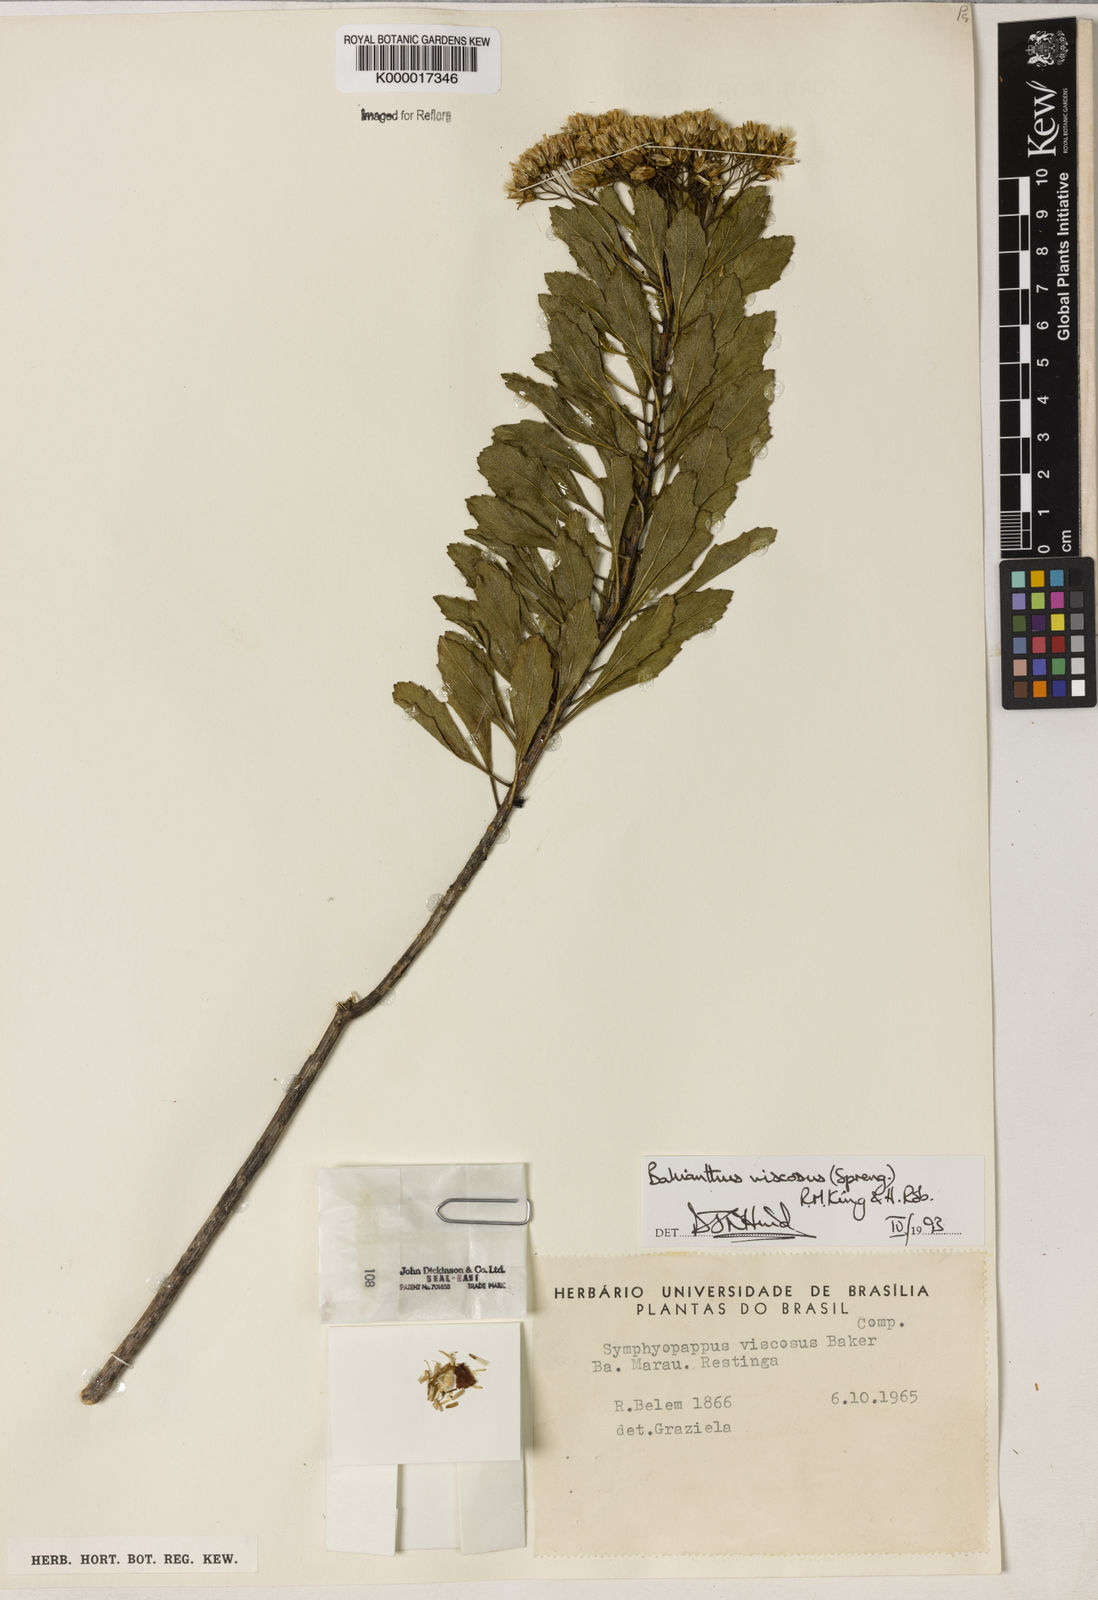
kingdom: Plantae
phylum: Tracheophyta
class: Magnoliopsida
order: Asterales
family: Asteraceae
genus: Bahianthus
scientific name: Bahianthus viscosus
